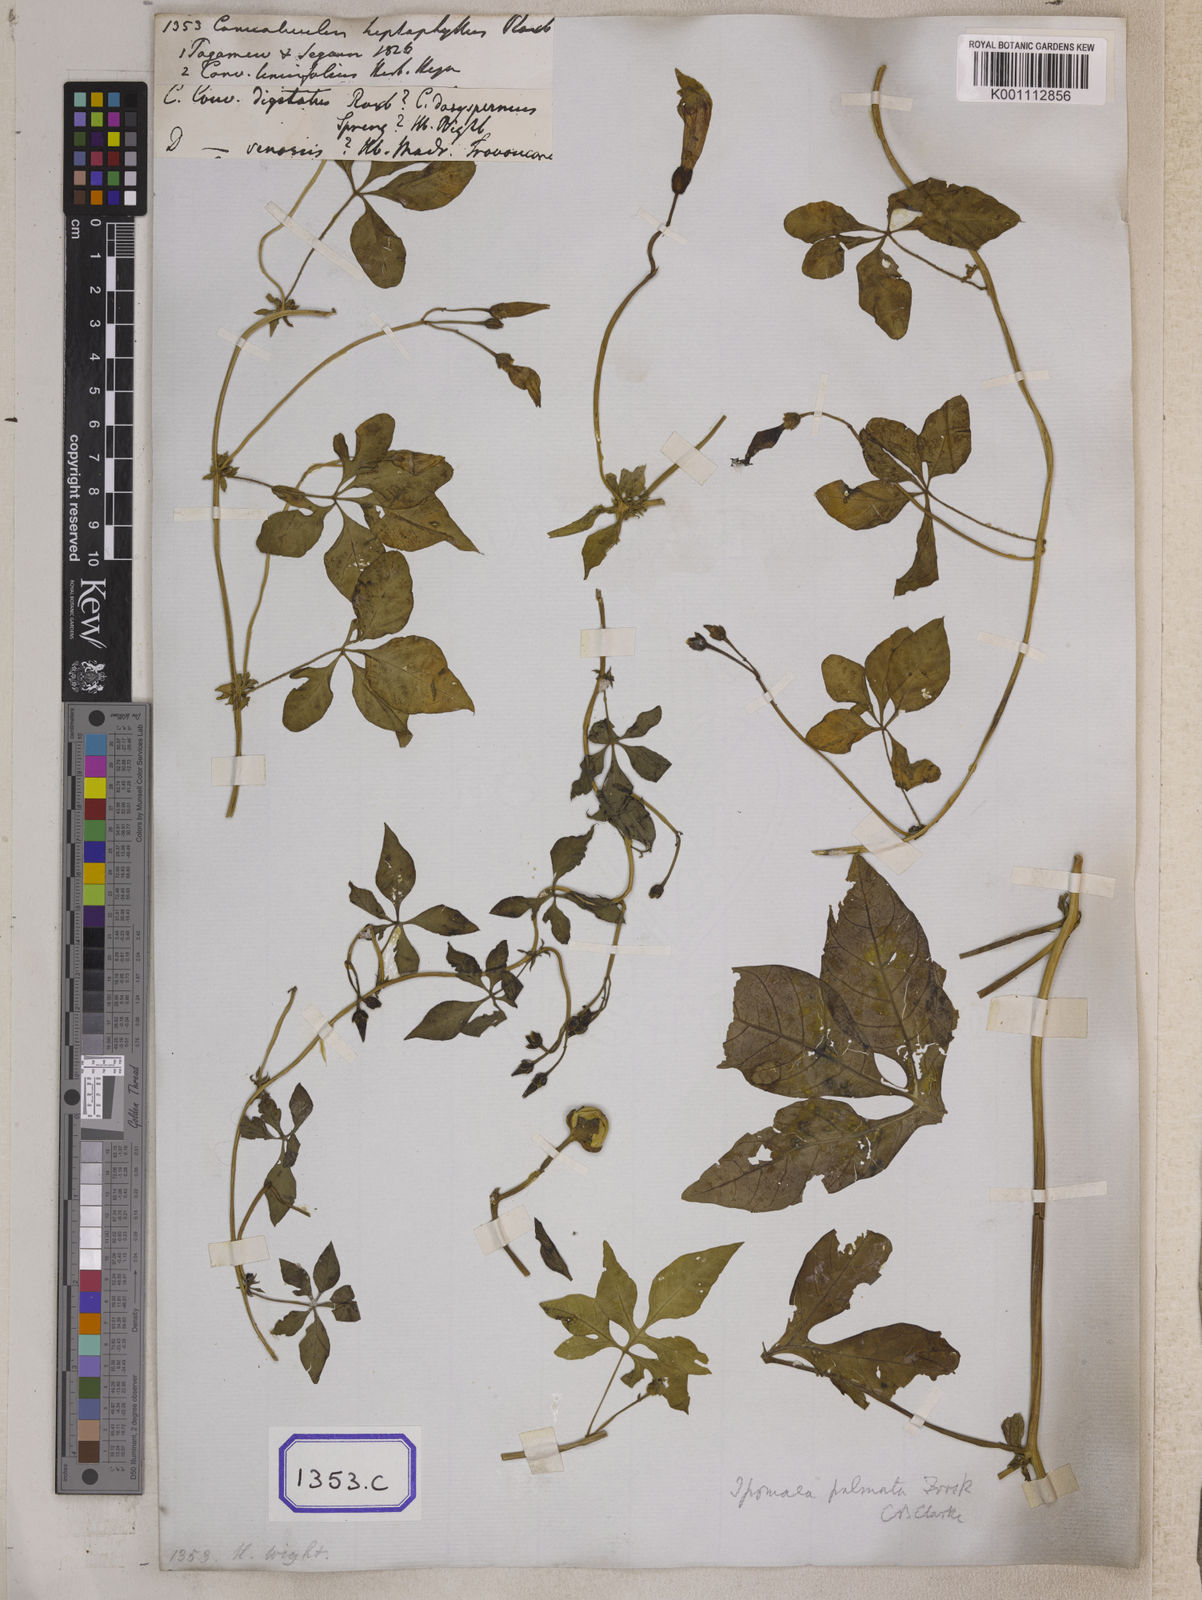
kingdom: Plantae
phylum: Tracheophyta
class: Magnoliopsida
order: Solanales
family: Convolvulaceae
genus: Ipomoea
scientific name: Ipomoea tenuipes
